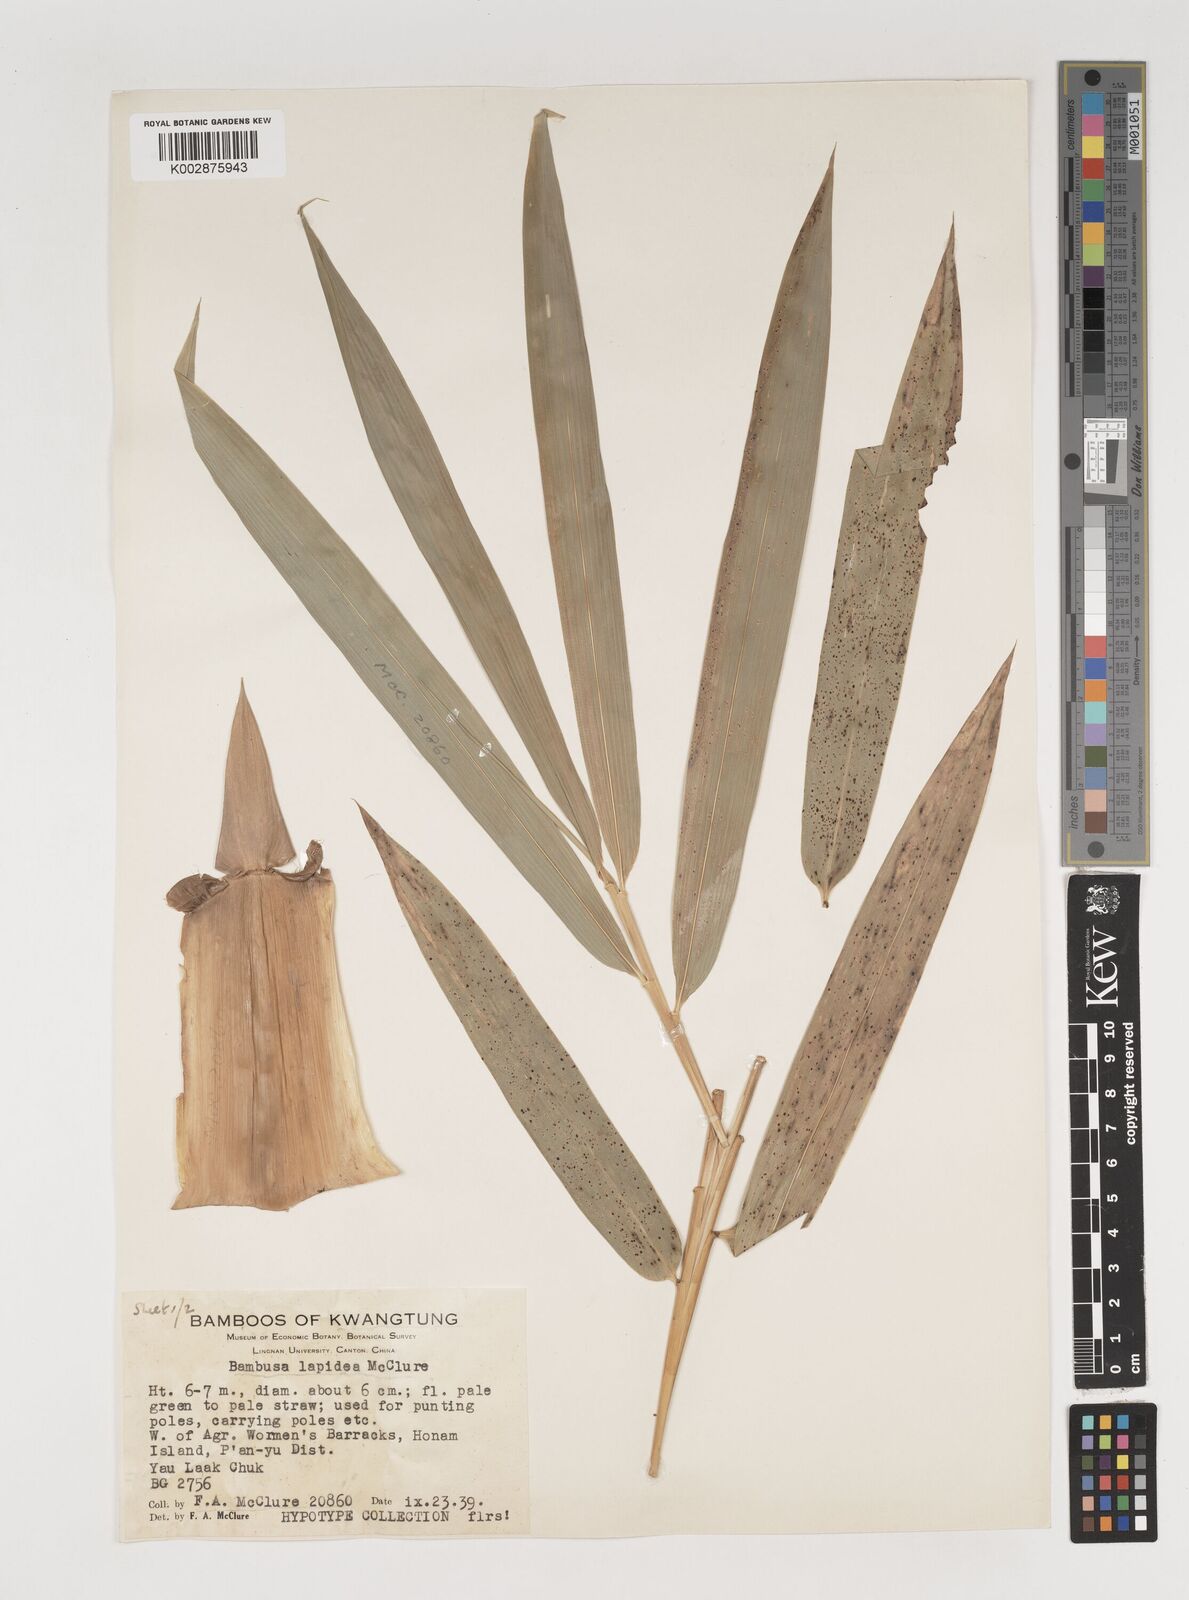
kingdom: Plantae
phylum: Tracheophyta
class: Liliopsida
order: Poales
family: Poaceae
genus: Bambusa
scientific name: Bambusa lapidea
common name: Horsehoof bamboo
